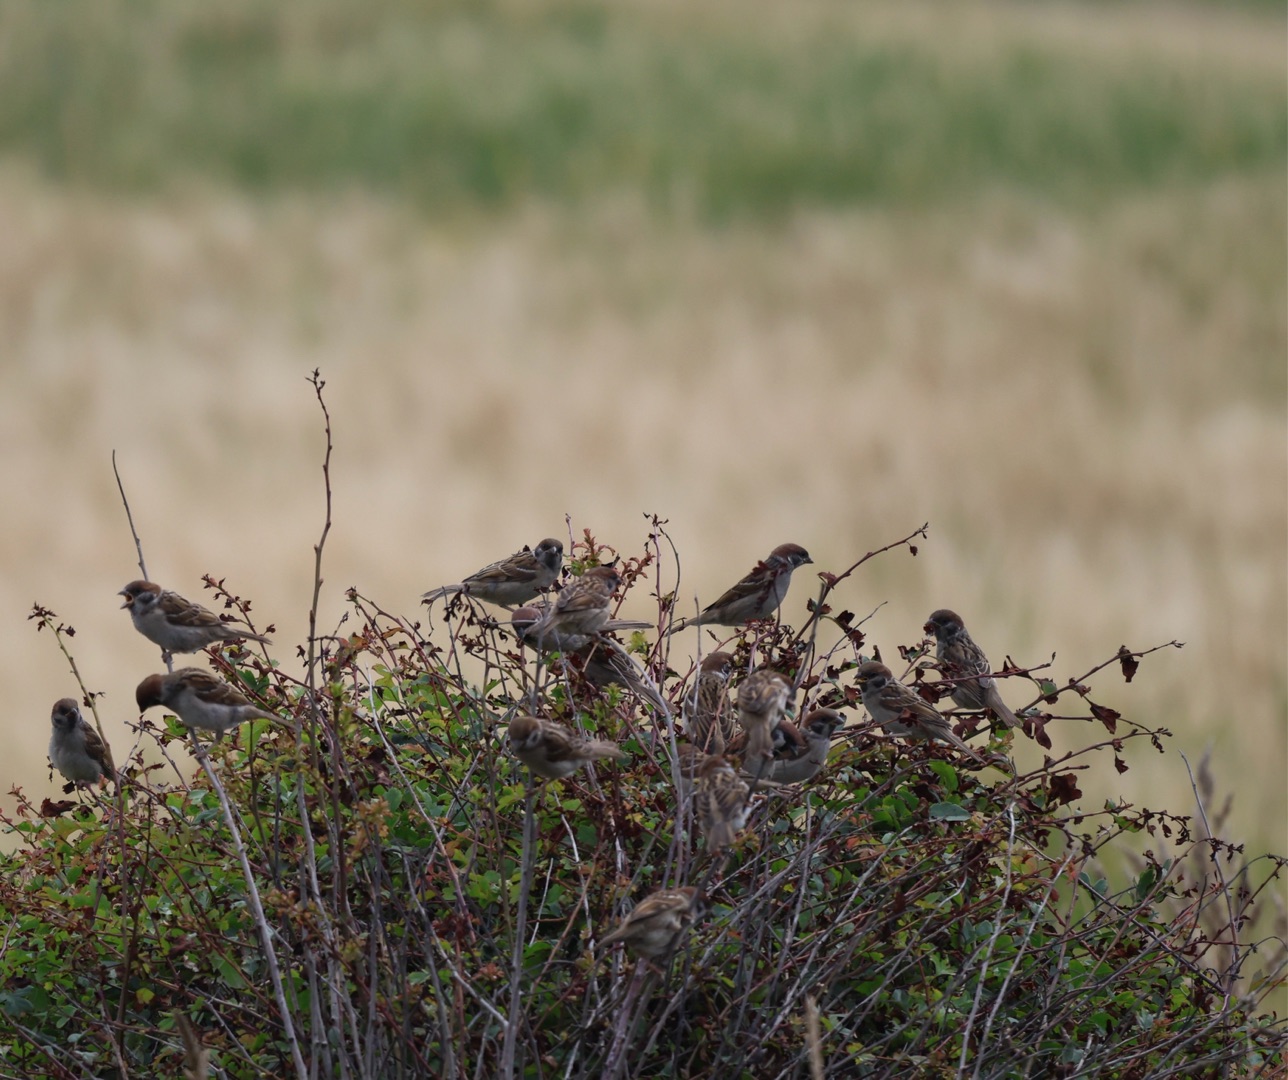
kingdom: Animalia
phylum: Chordata
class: Aves
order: Passeriformes
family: Passeridae
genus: Passer
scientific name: Passer montanus
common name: Skovspurv
